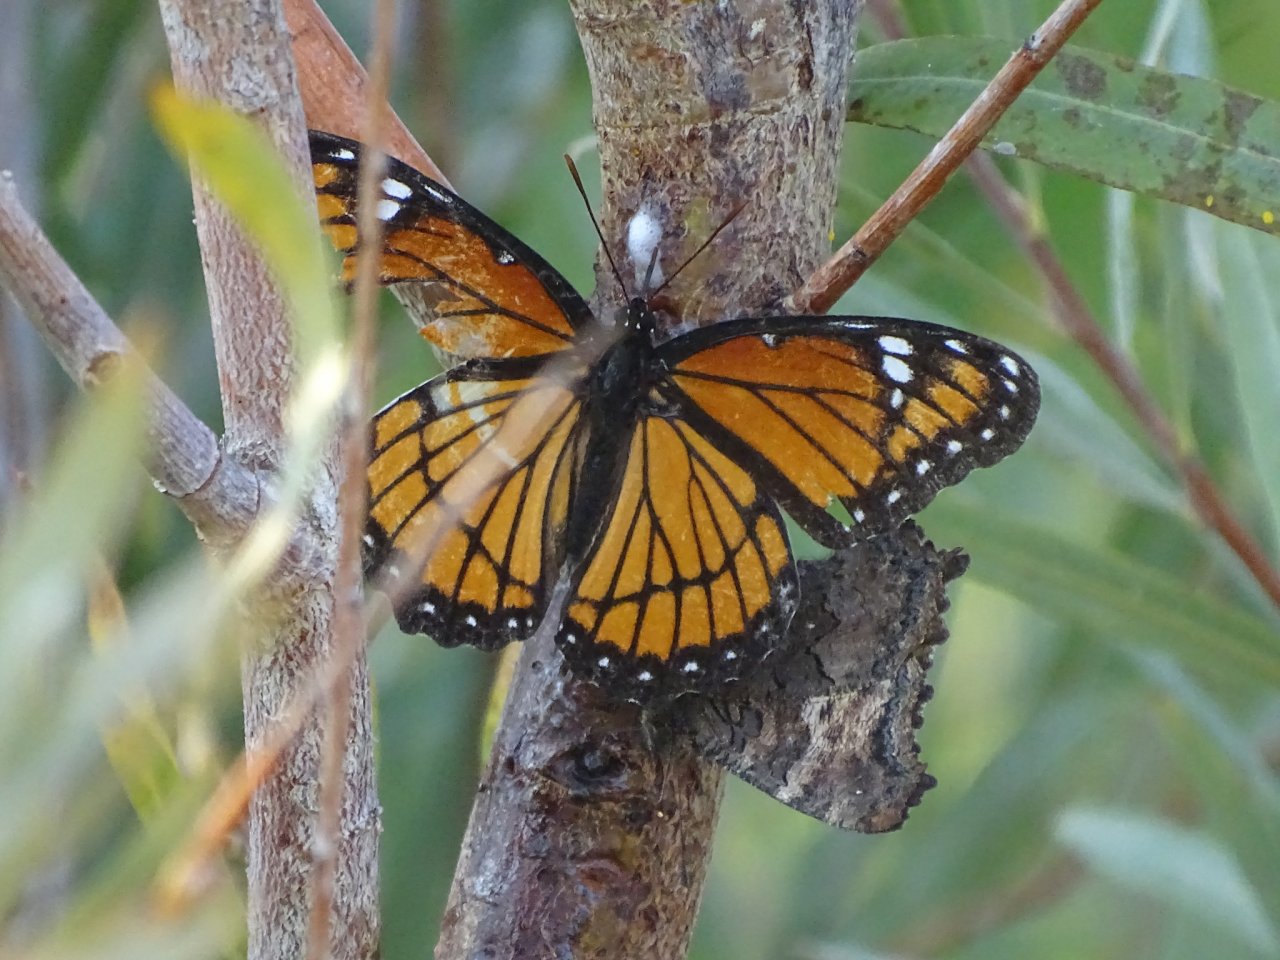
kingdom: Animalia
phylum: Arthropoda
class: Insecta
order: Lepidoptera
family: Nymphalidae
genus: Limenitis
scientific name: Limenitis archippus
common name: Viceroy
